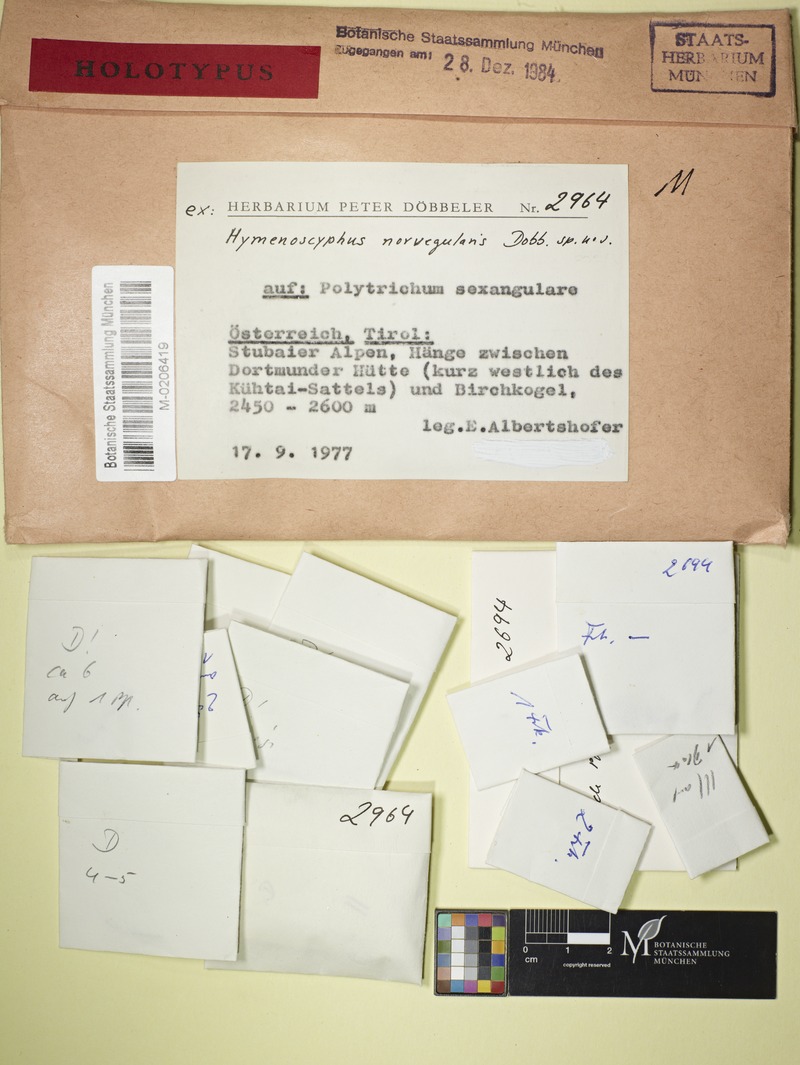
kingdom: Fungi
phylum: Ascomycota
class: Leotiomycetes
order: Helotiales
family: Helotiaceae
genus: Hymenoscyphus
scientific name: Hymenoscyphus norvegularis
